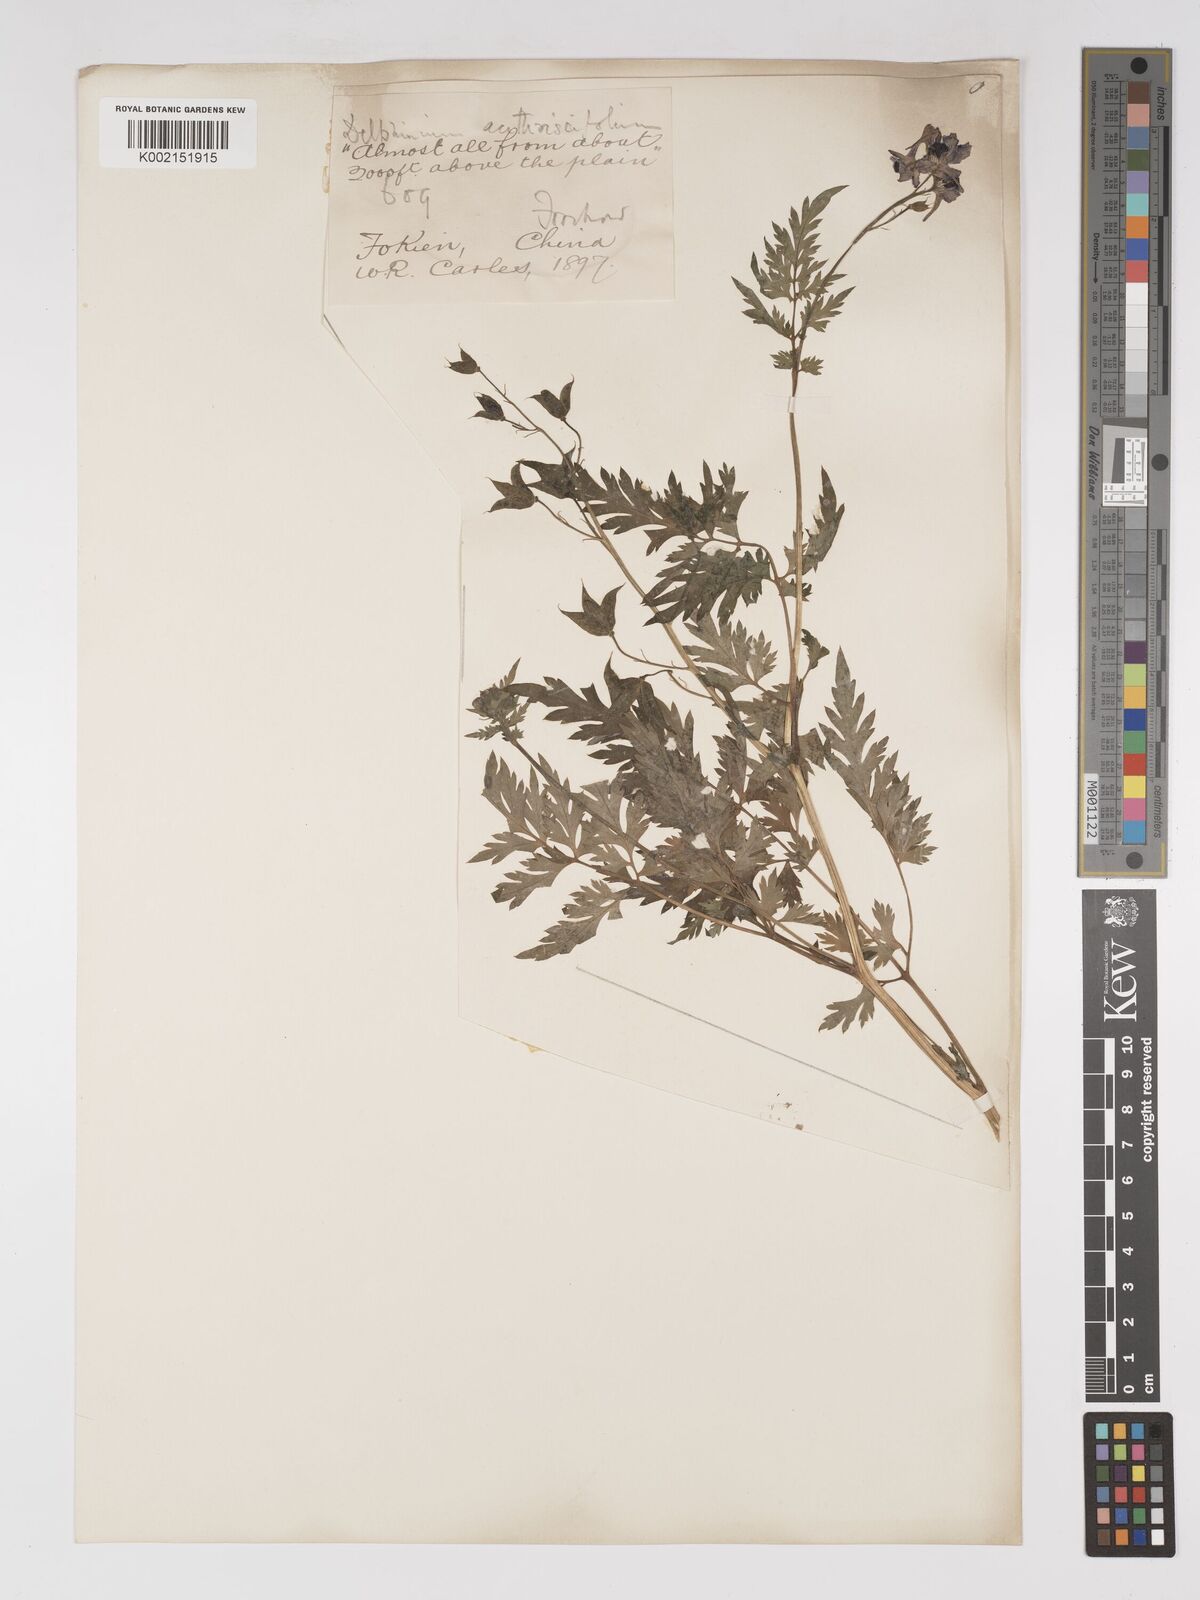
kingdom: Plantae
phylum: Tracheophyta
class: Magnoliopsida
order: Ranunculales
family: Ranunculaceae
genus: Delphinium
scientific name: Delphinium anthriscifolium
